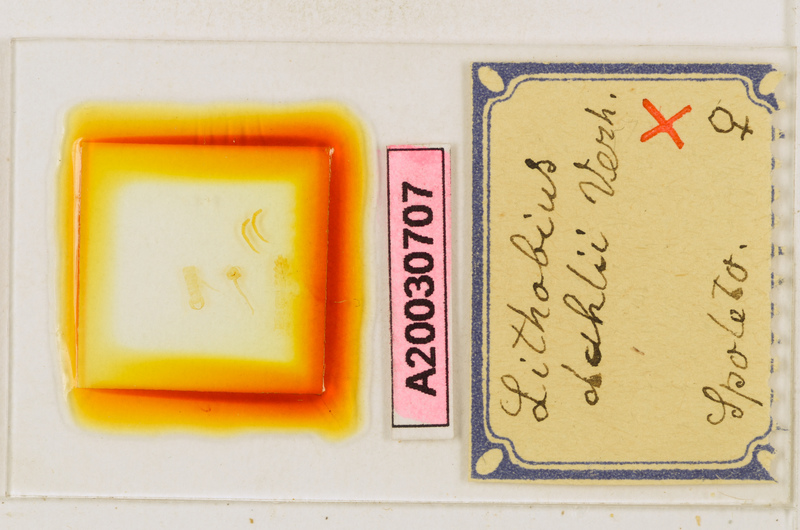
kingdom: Animalia
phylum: Arthropoda
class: Chilopoda
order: Lithobiomorpha
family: Lithobiidae
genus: Lithobius
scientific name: Lithobius dahlii
